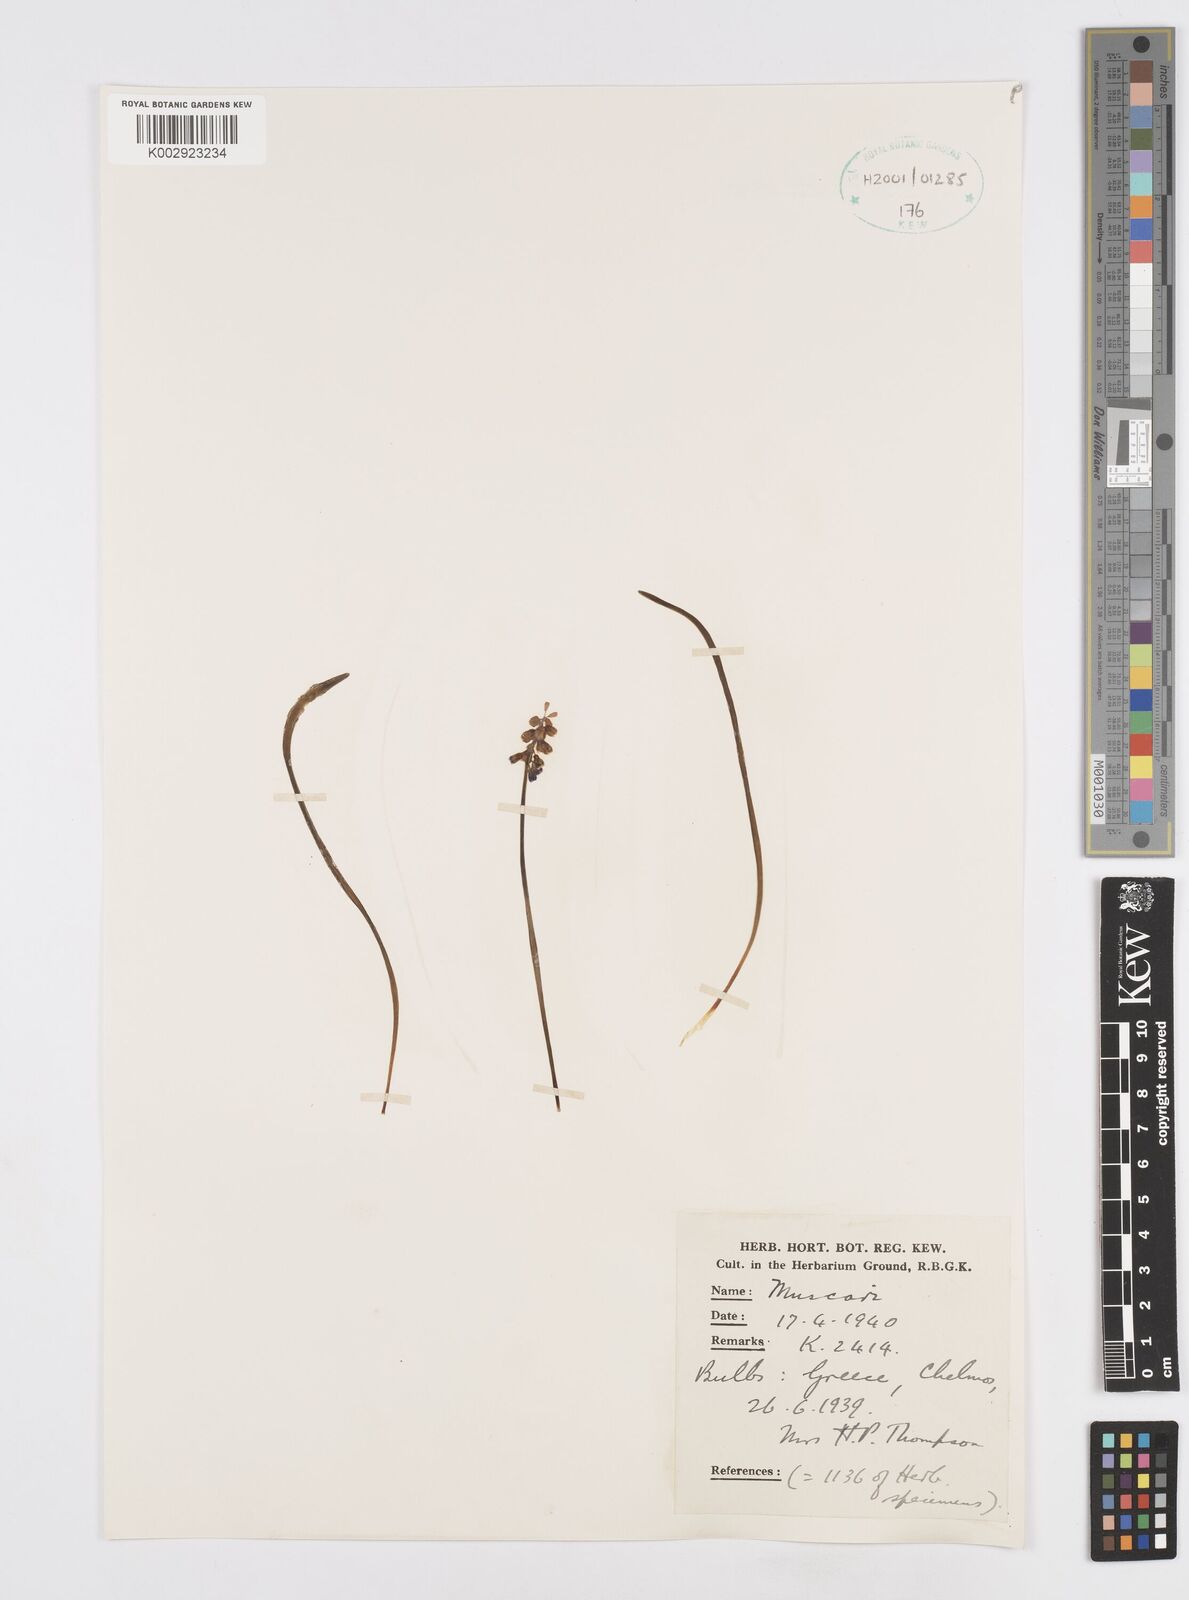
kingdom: Plantae
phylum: Tracheophyta
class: Liliopsida
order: Asparagales
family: Asparagaceae
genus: Muscari
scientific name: Muscari
